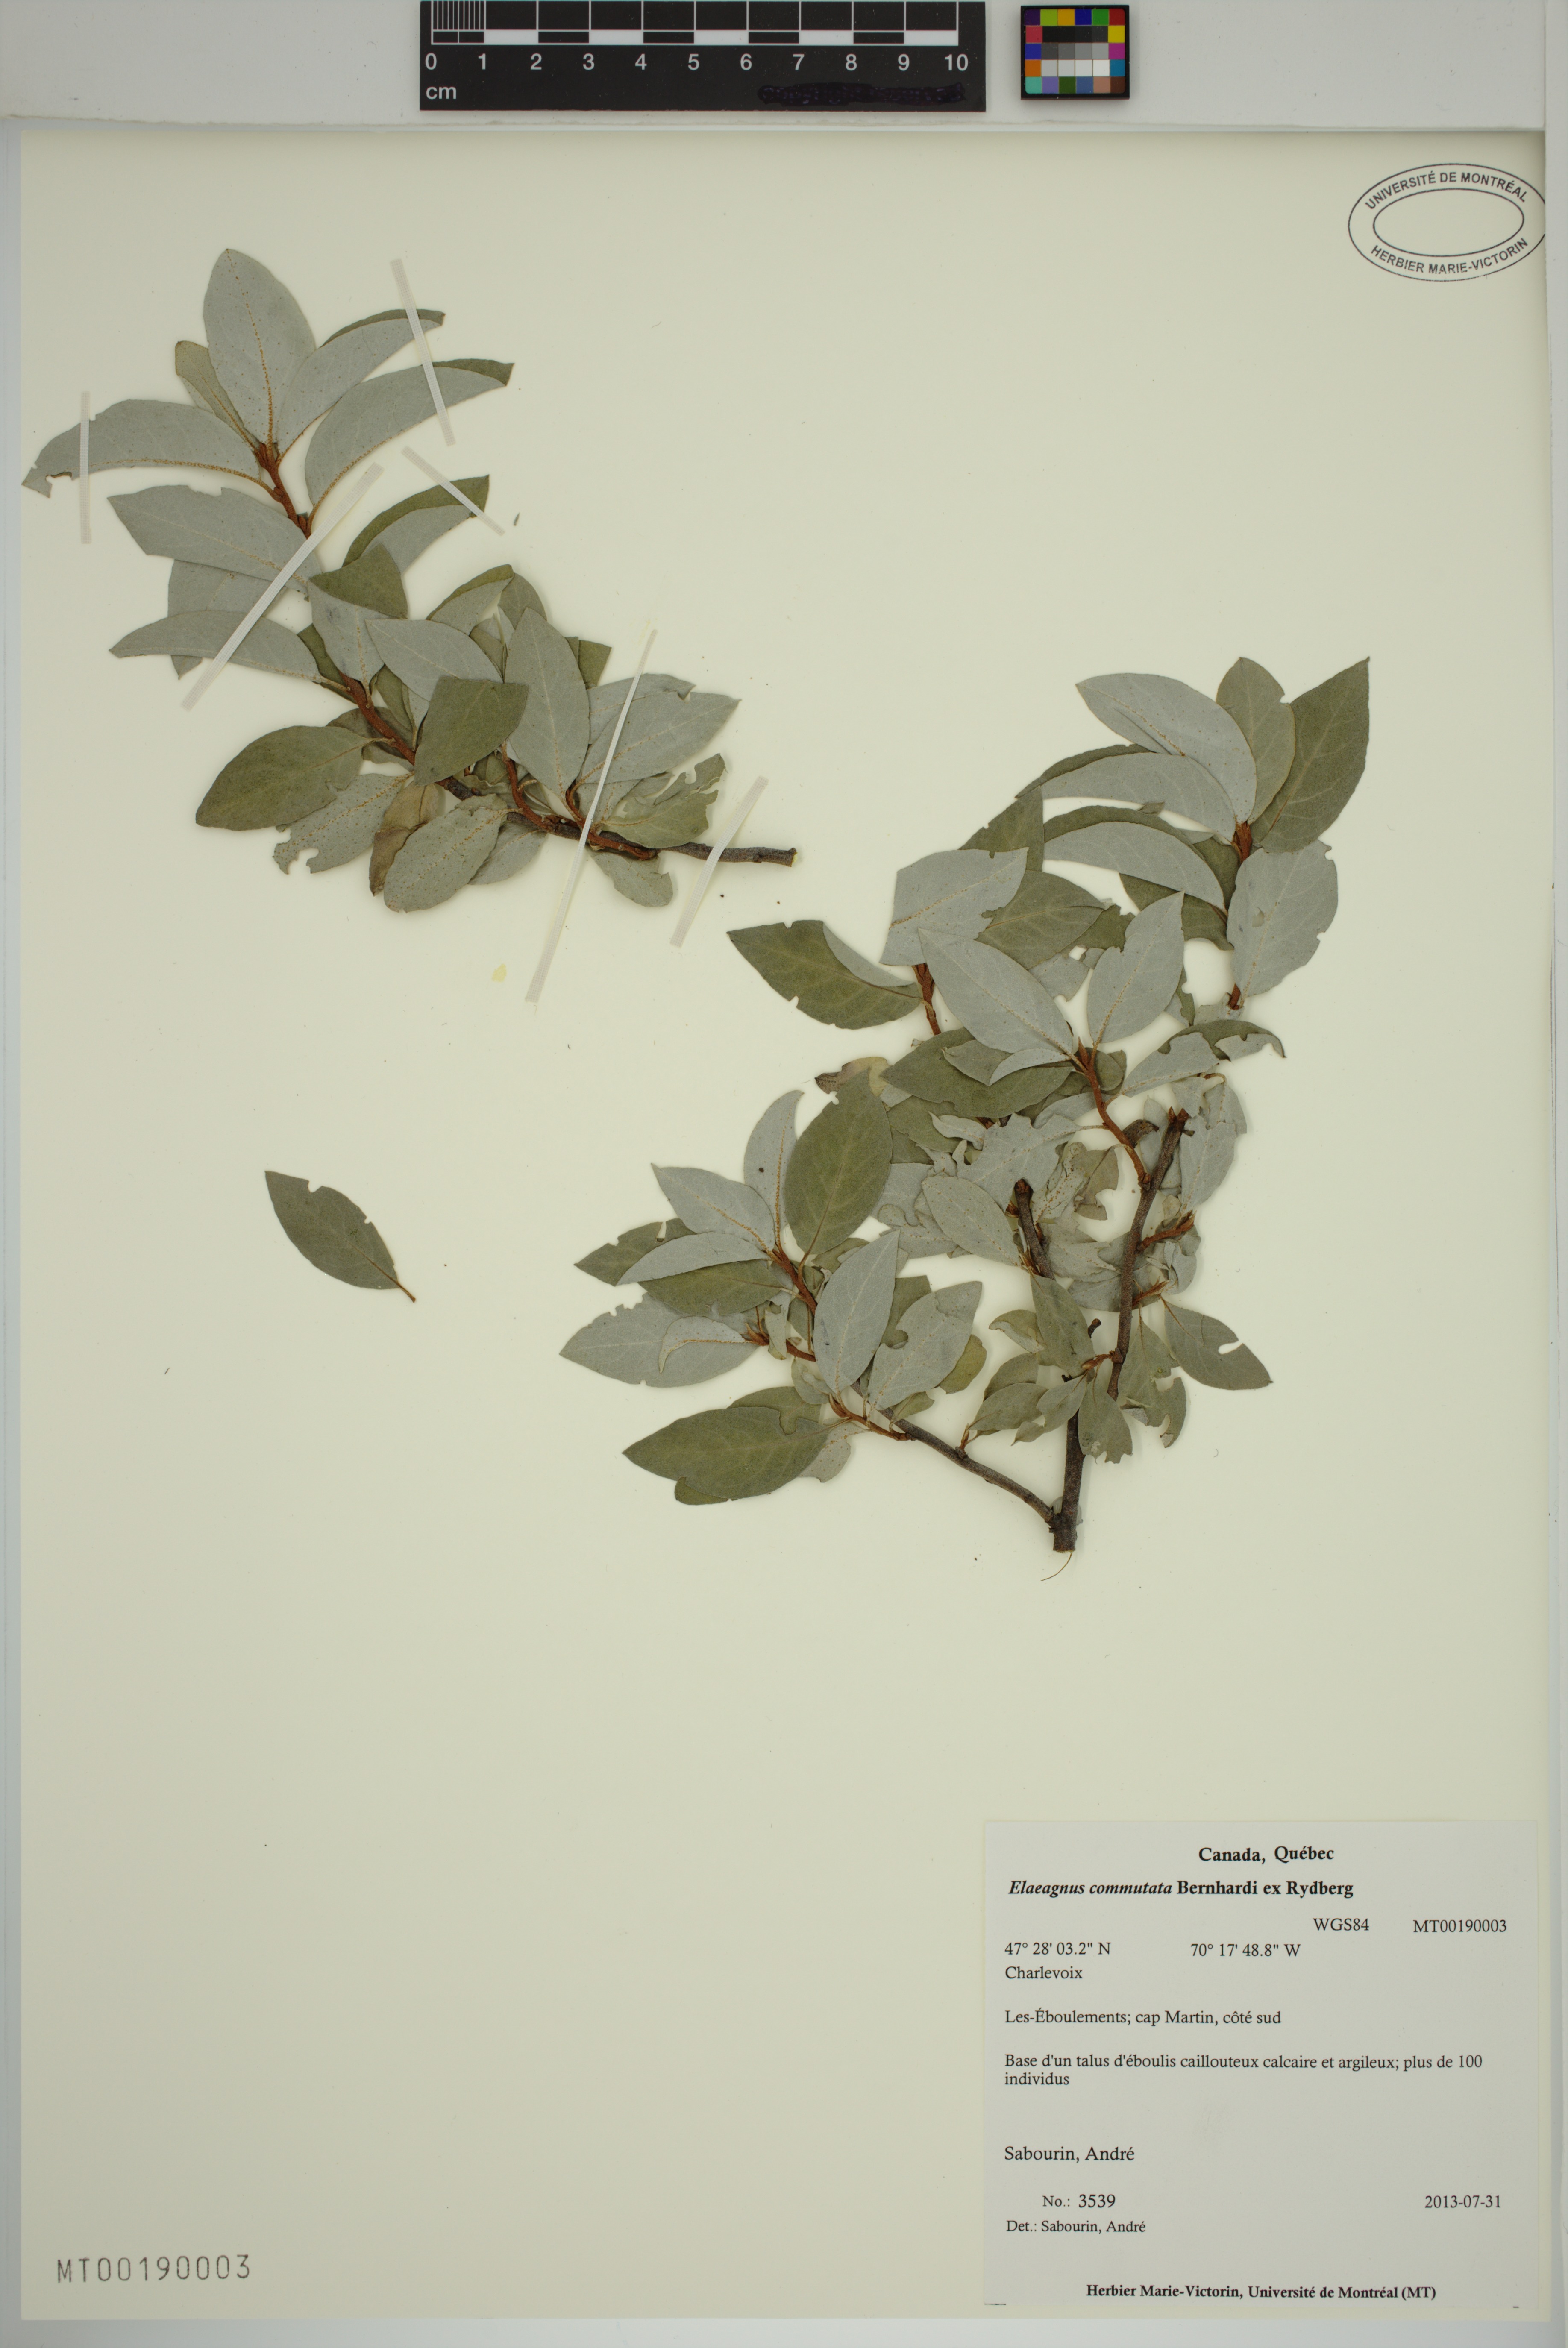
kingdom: Plantae
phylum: Tracheophyta
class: Magnoliopsida
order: Rosales
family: Elaeagnaceae
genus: Elaeagnus
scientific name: Elaeagnus commutata
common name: Silverberry
